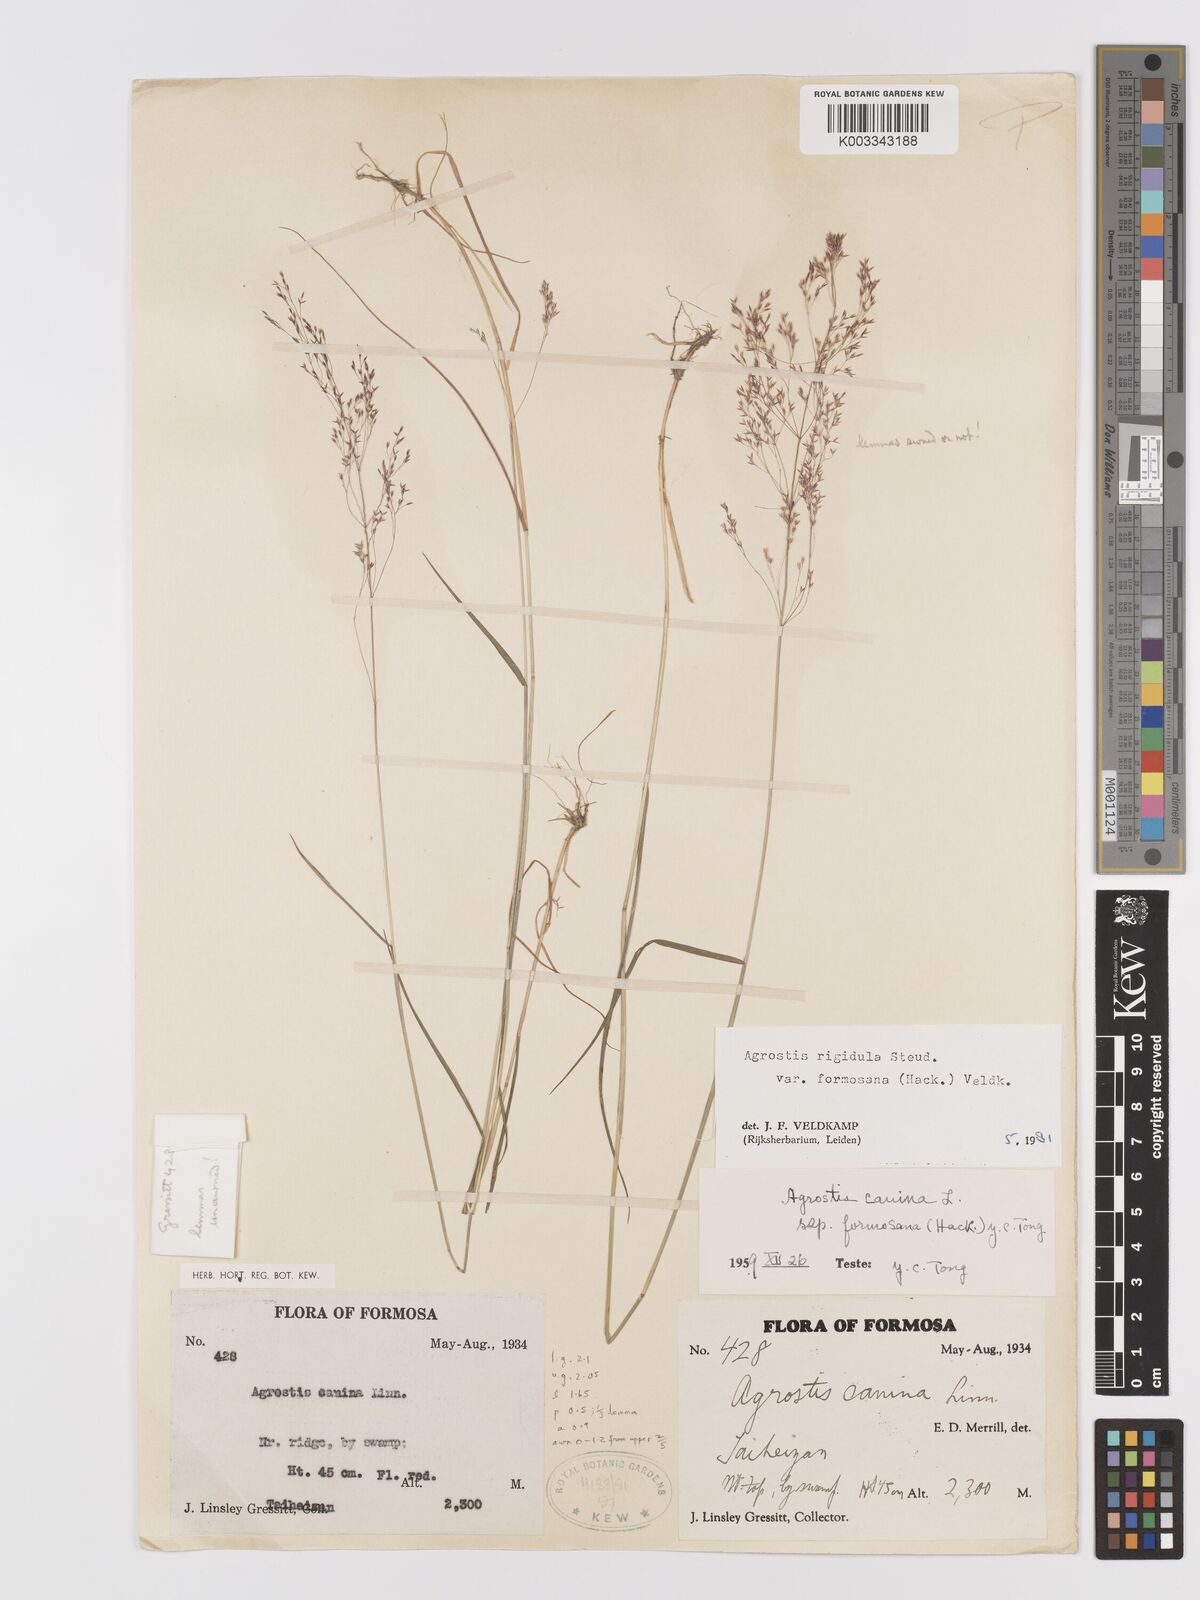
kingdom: Plantae
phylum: Tracheophyta
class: Liliopsida
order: Poales
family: Poaceae
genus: Agrostis
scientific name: Agrostis infirma
